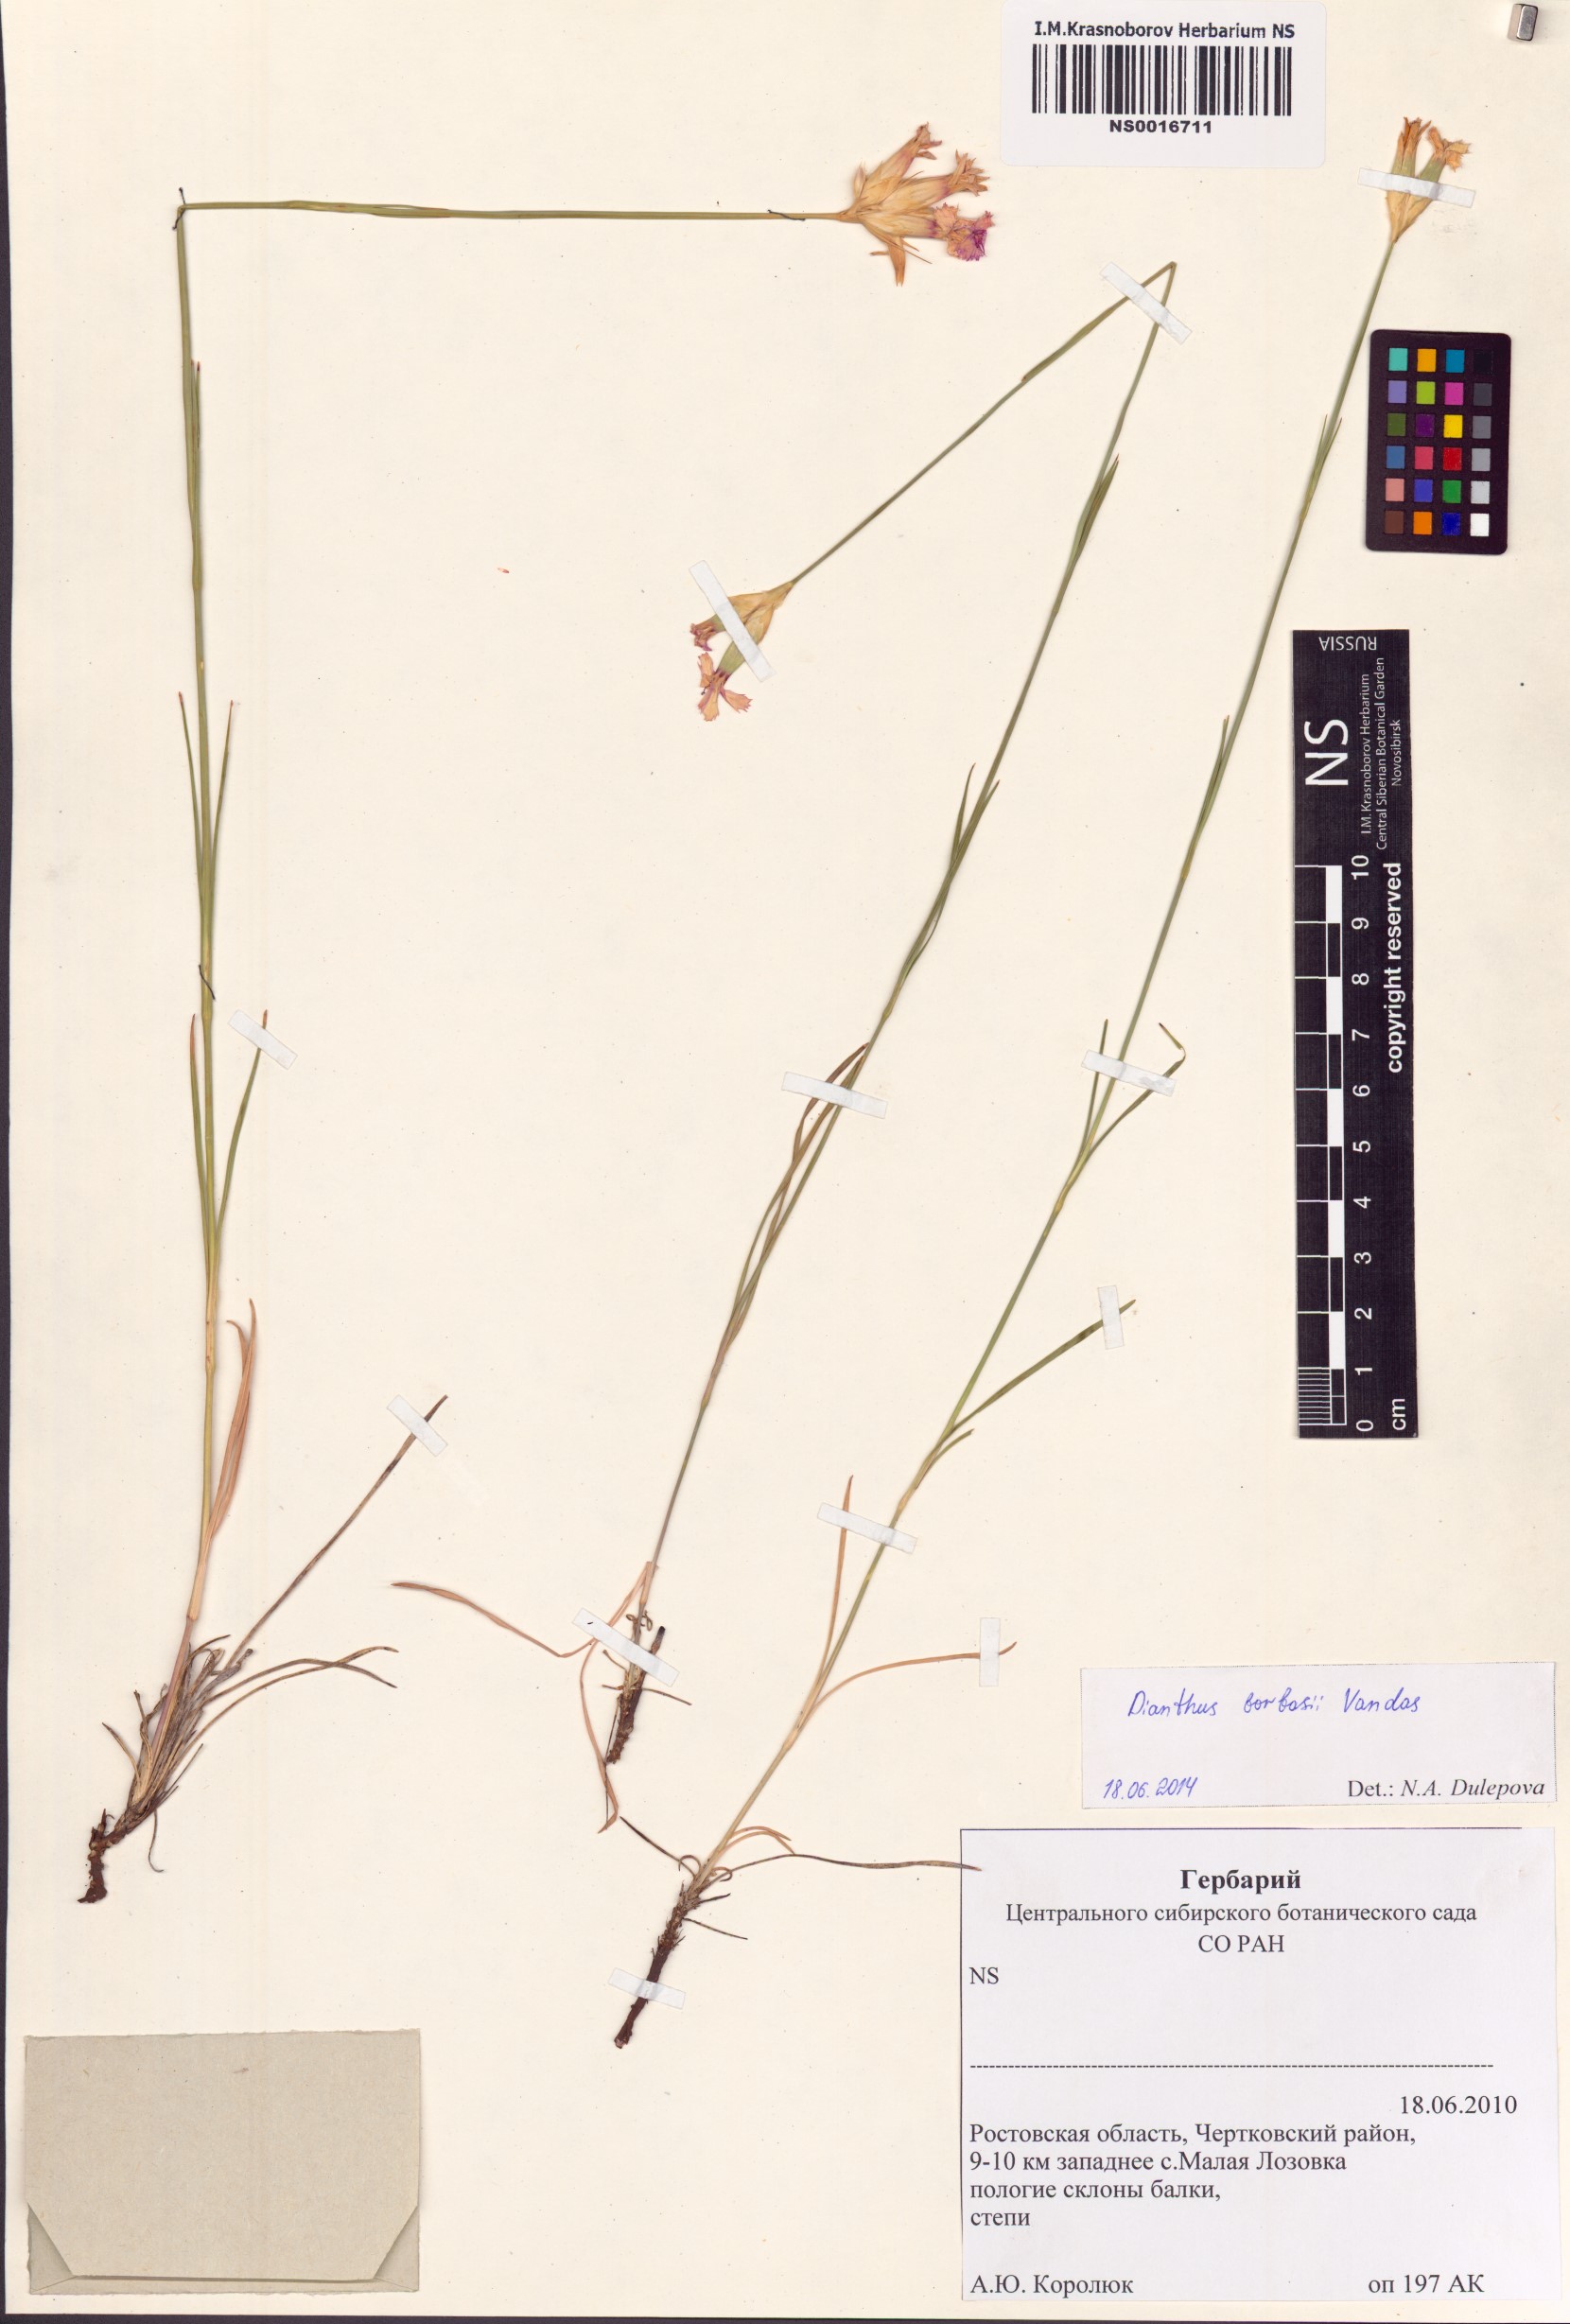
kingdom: Plantae
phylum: Tracheophyta
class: Magnoliopsida
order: Caryophyllales
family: Caryophyllaceae
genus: Dianthus
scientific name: Dianthus borbasii
